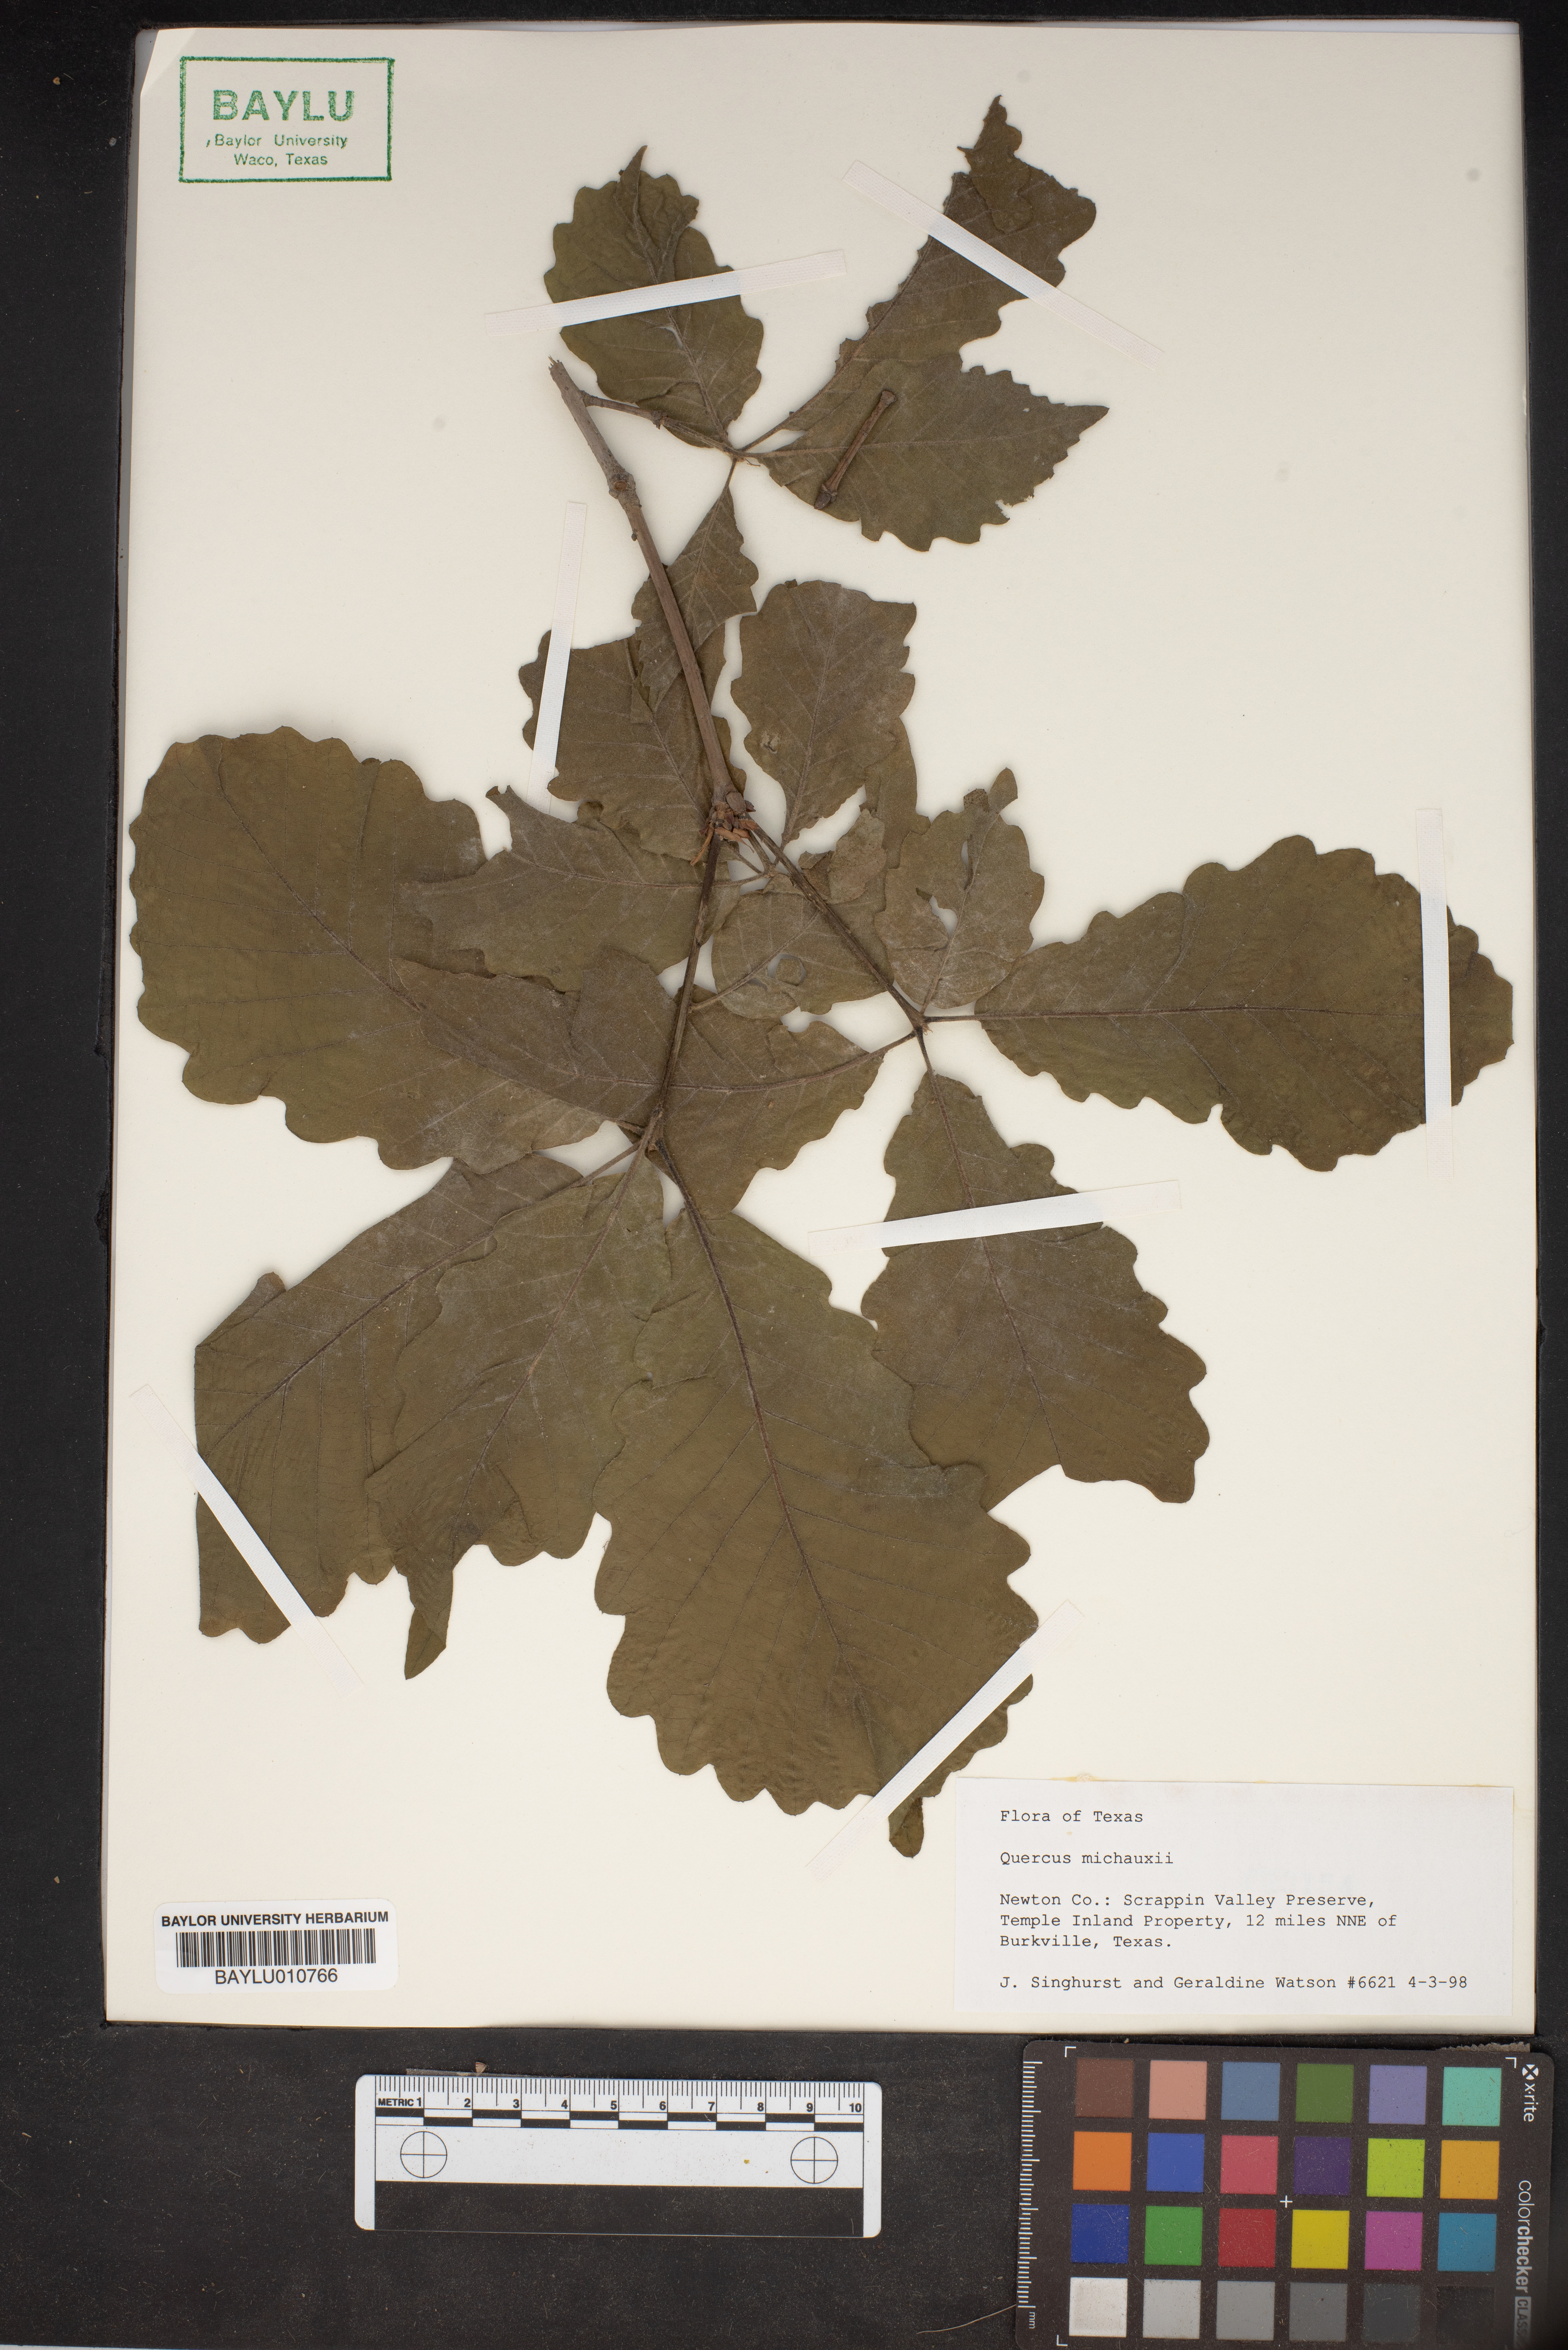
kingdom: Plantae
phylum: Tracheophyta
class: Magnoliopsida
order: Fagales
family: Fagaceae
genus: Quercus
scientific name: Quercus michauxii
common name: Swamp chestnut oak
